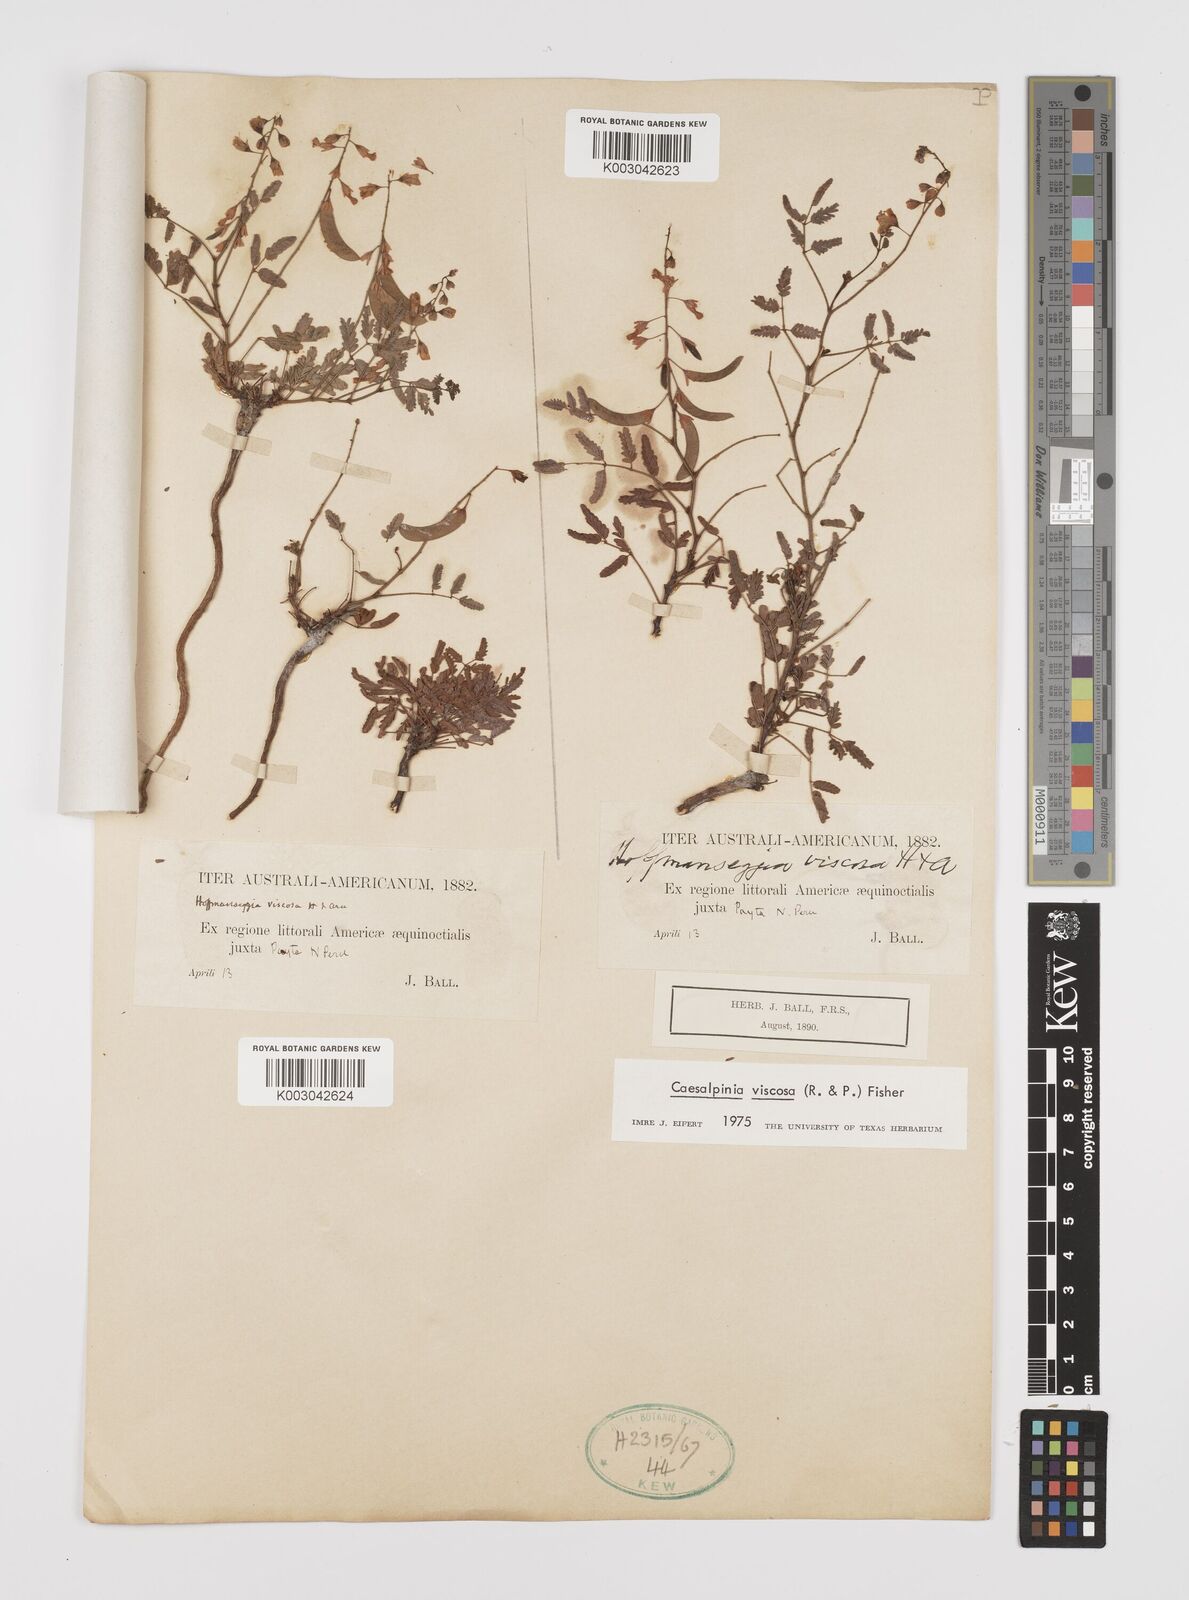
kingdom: Plantae
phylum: Tracheophyta
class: Magnoliopsida
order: Fabales
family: Fabaceae
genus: Hoffmannseggia
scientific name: Hoffmannseggia viscosa
